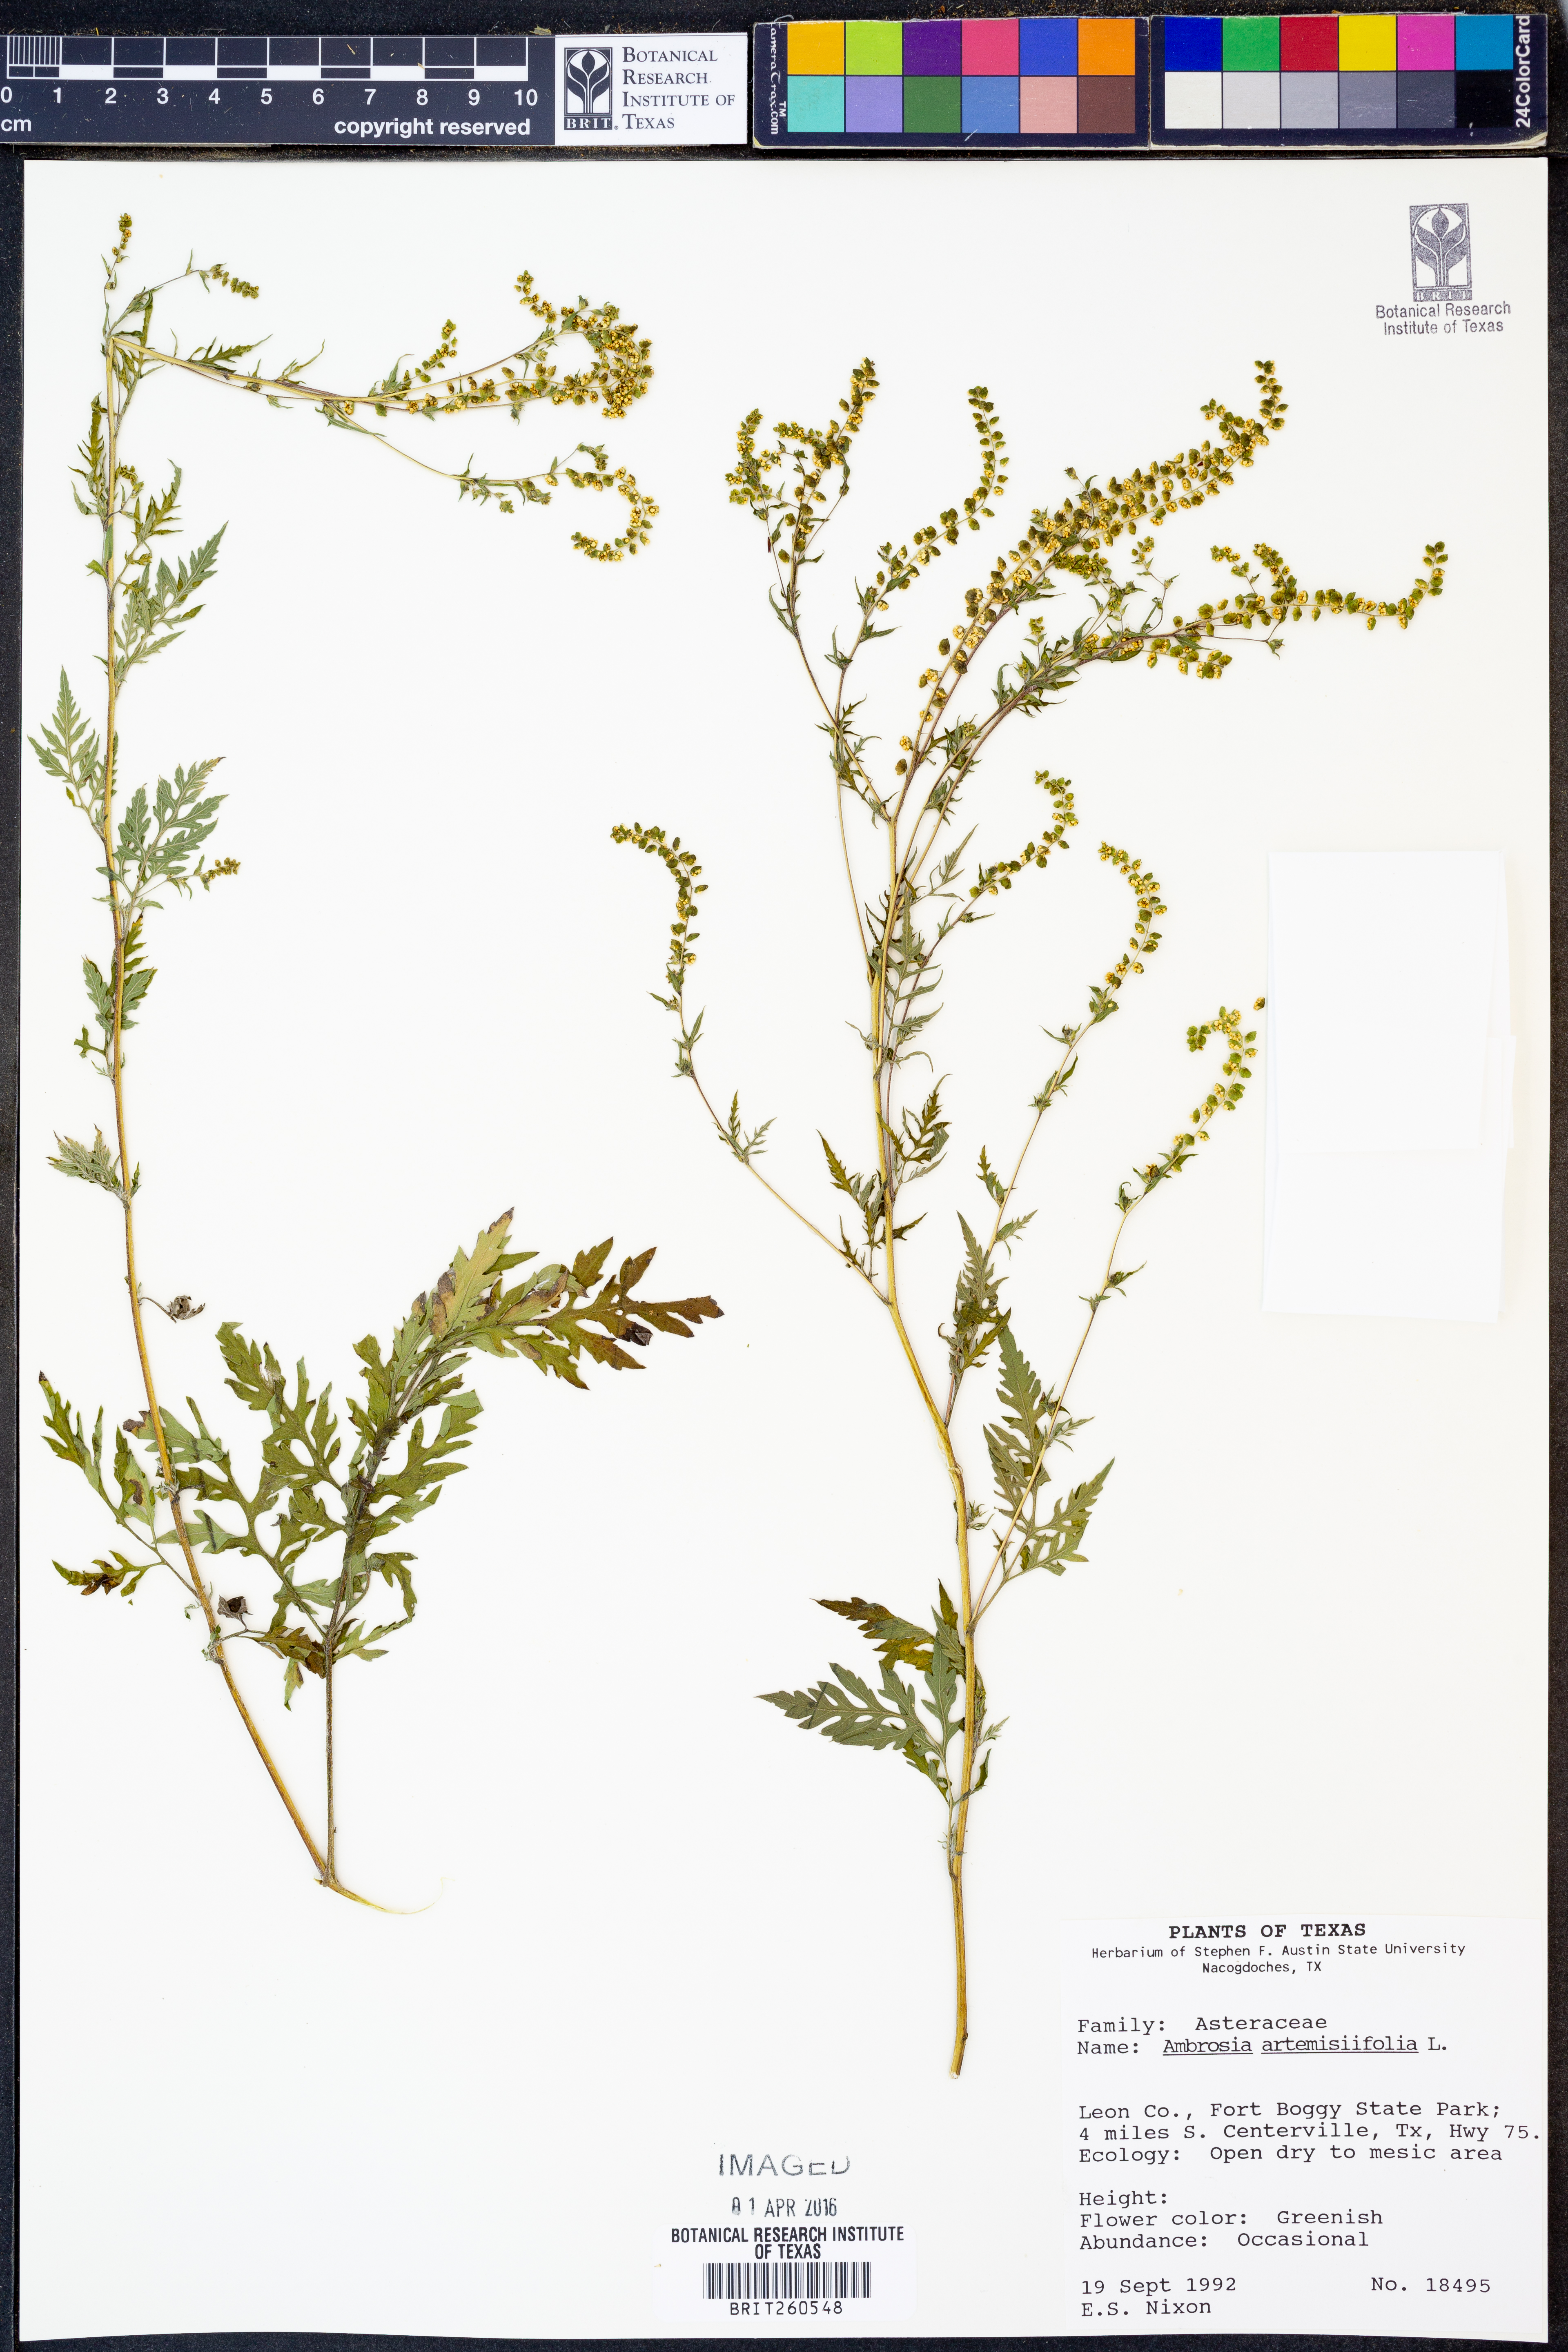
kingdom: Plantae
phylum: Tracheophyta
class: Magnoliopsida
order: Asterales
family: Asteraceae
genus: Ambrosia
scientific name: Ambrosia artemisiifolia
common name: Annual ragweed
